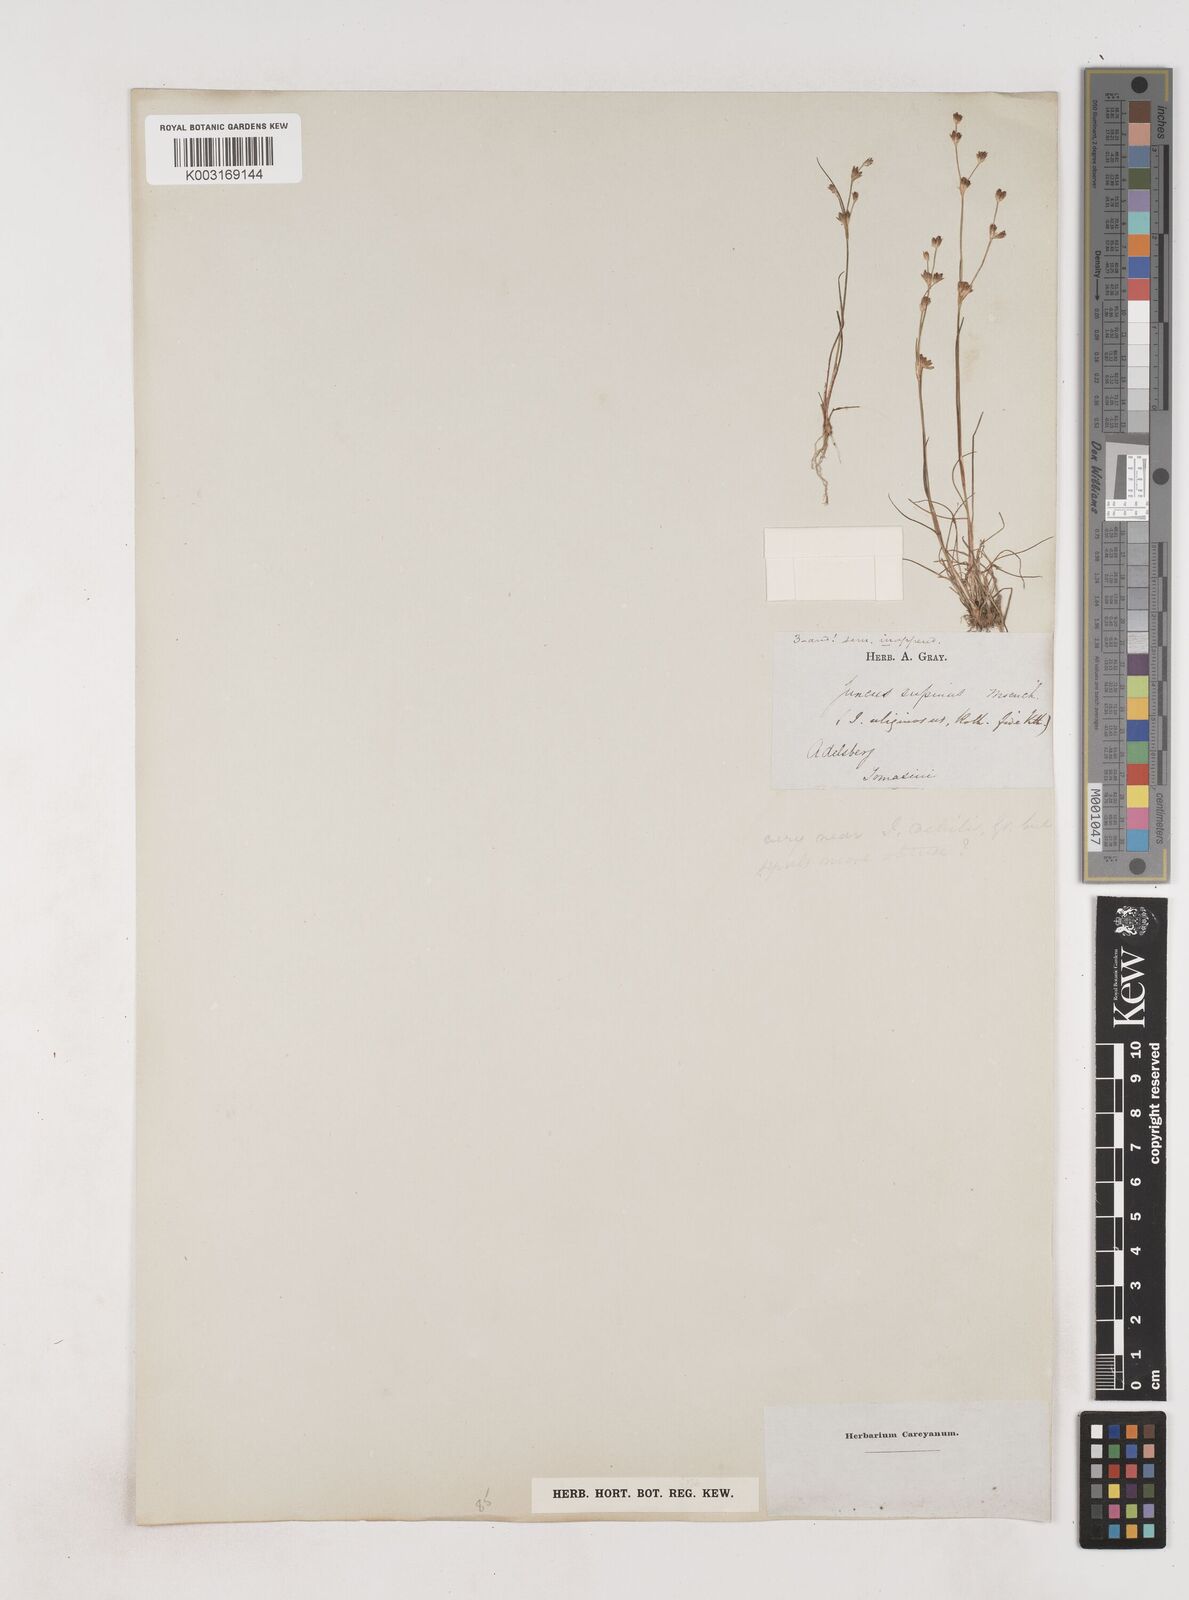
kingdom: Plantae
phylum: Tracheophyta
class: Liliopsida
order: Poales
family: Juncaceae
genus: Juncus
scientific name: Juncus bulbosus
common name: Bulbous rush
